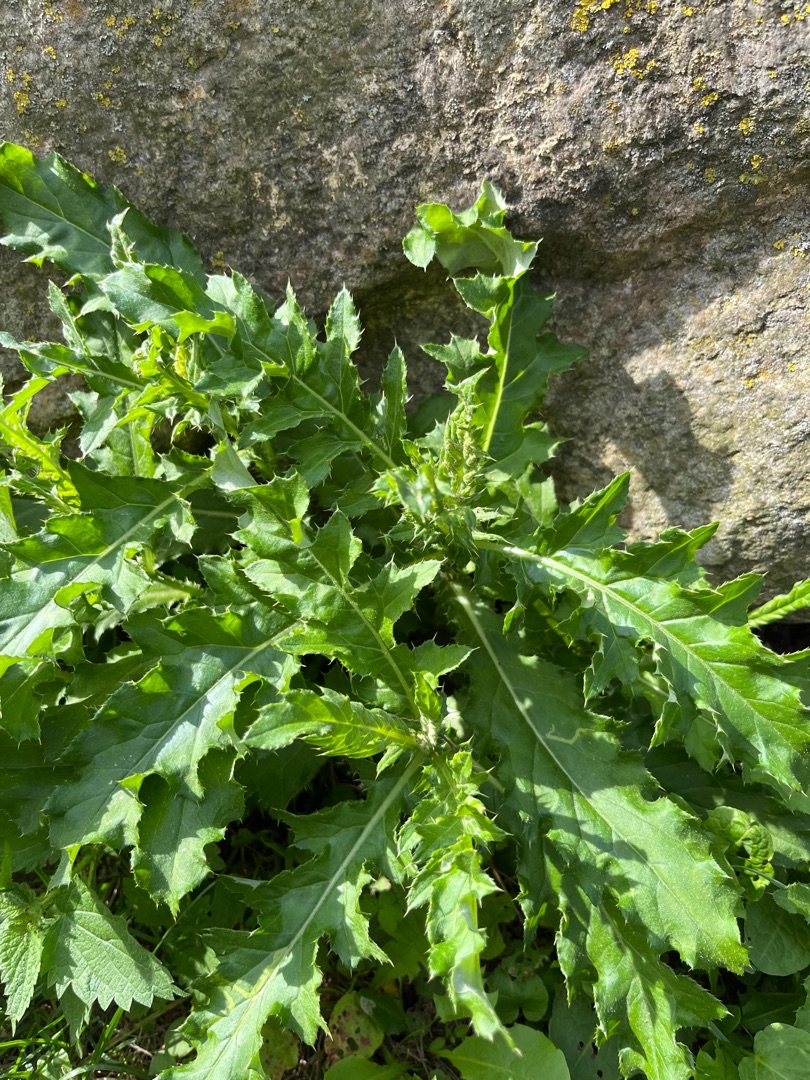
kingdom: Plantae
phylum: Tracheophyta
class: Magnoliopsida
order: Asterales
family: Asteraceae
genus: Cirsium
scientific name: Cirsium arvense
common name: Ager-tidsel
